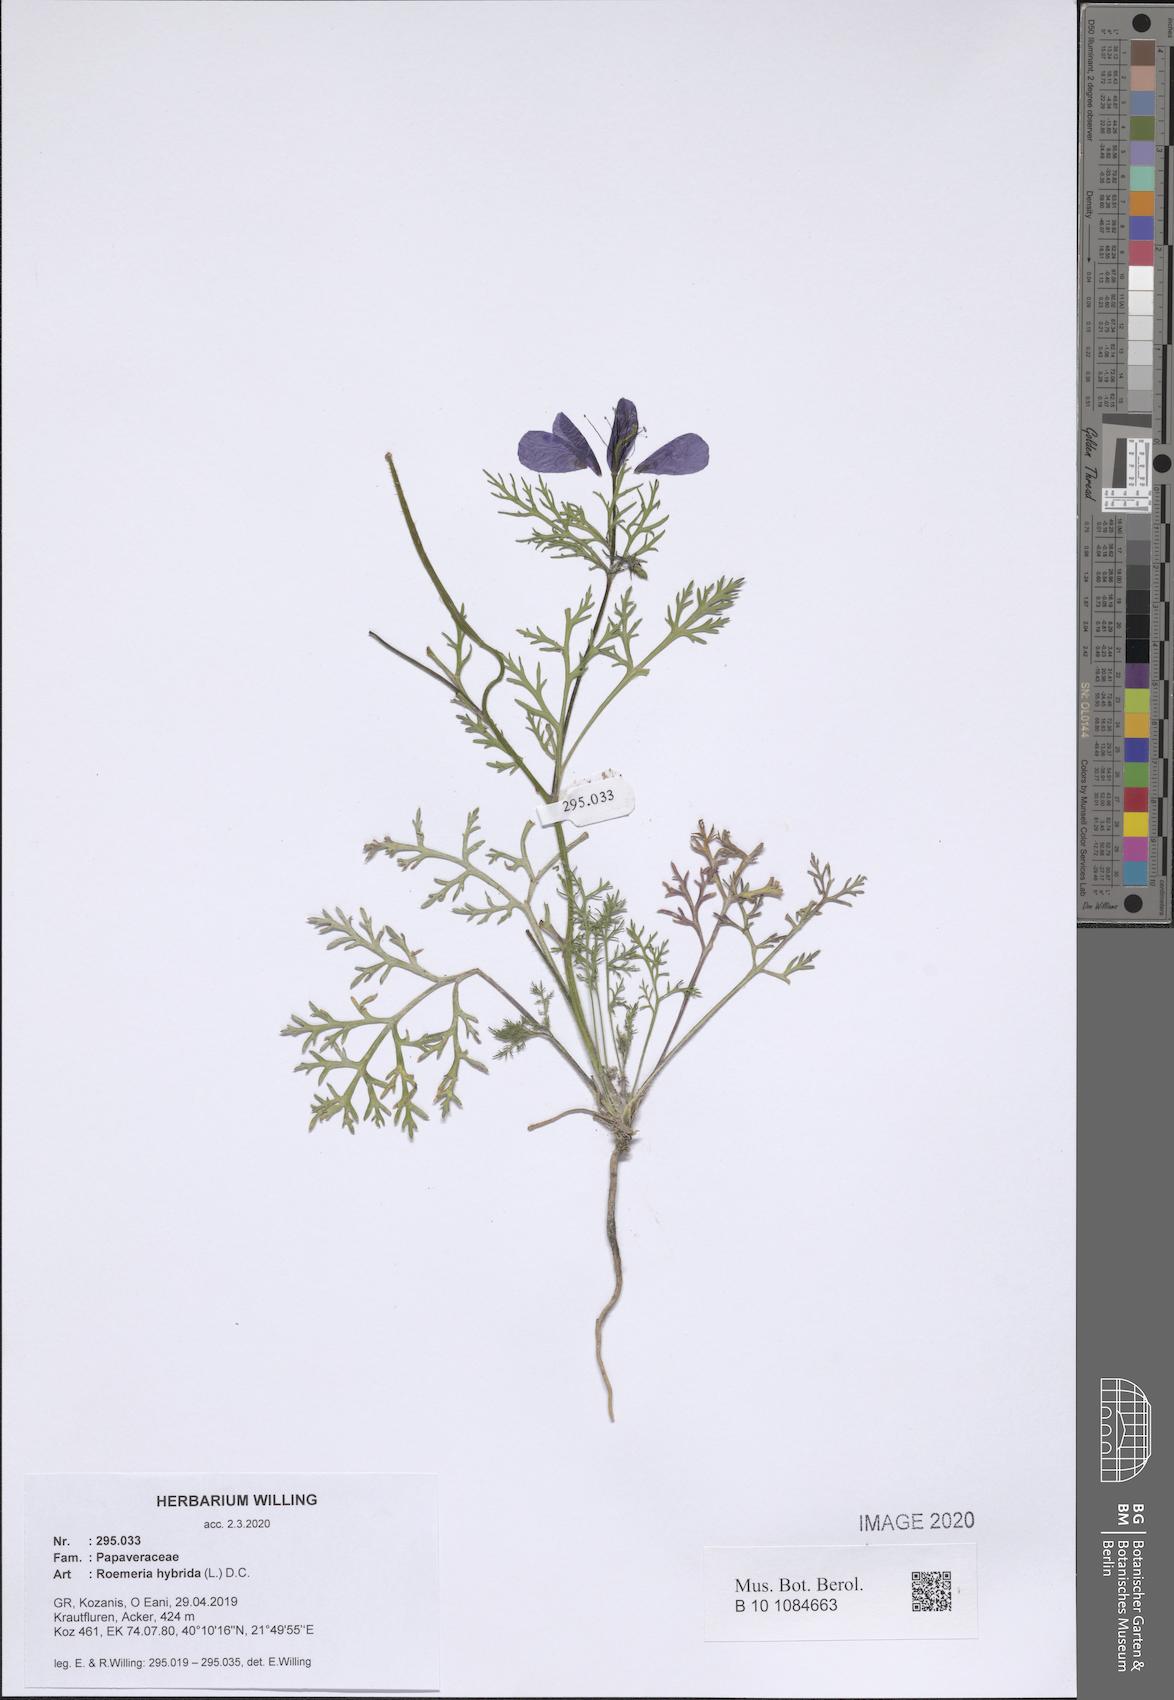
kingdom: Plantae
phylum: Tracheophyta
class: Magnoliopsida
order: Ranunculales
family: Papaveraceae
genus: Roemeria
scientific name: Roemeria hybrida
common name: Violet horned-poppy
